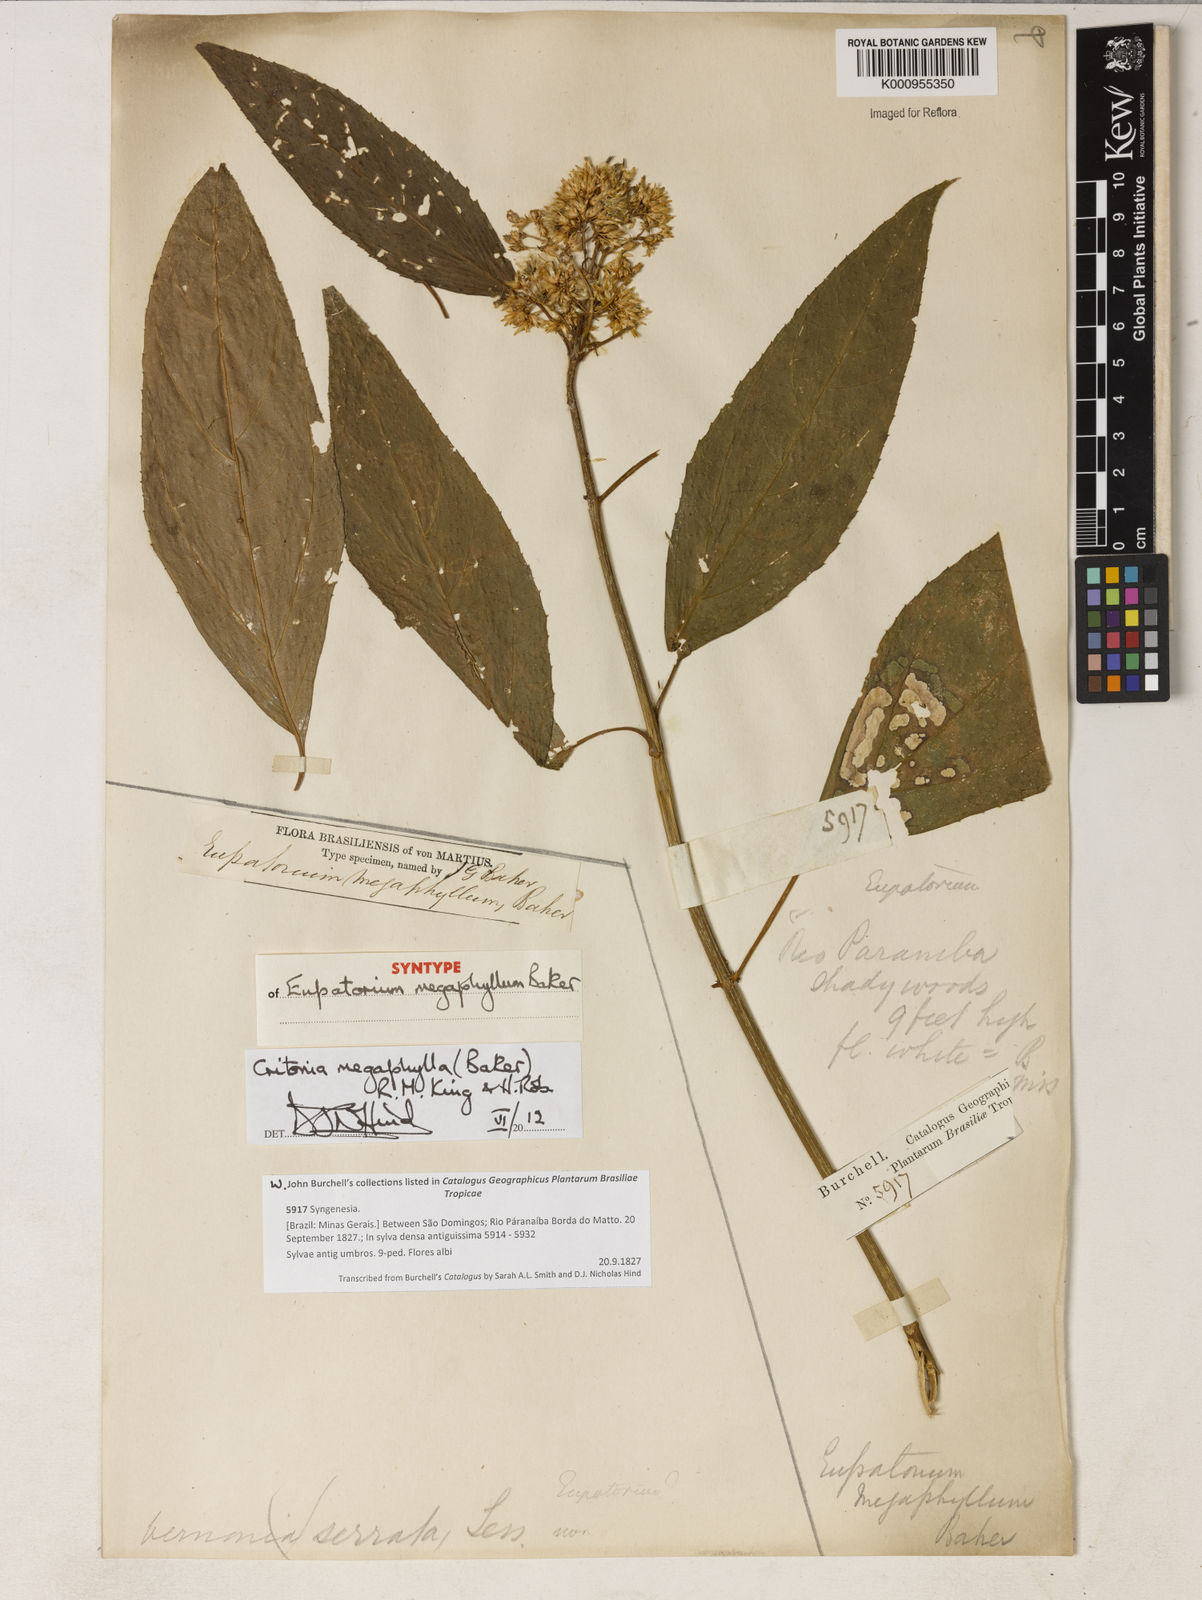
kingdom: Plantae
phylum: Tracheophyta
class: Magnoliopsida
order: Asterales
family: Asteraceae
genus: Critonia
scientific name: Critonia megaphylla
